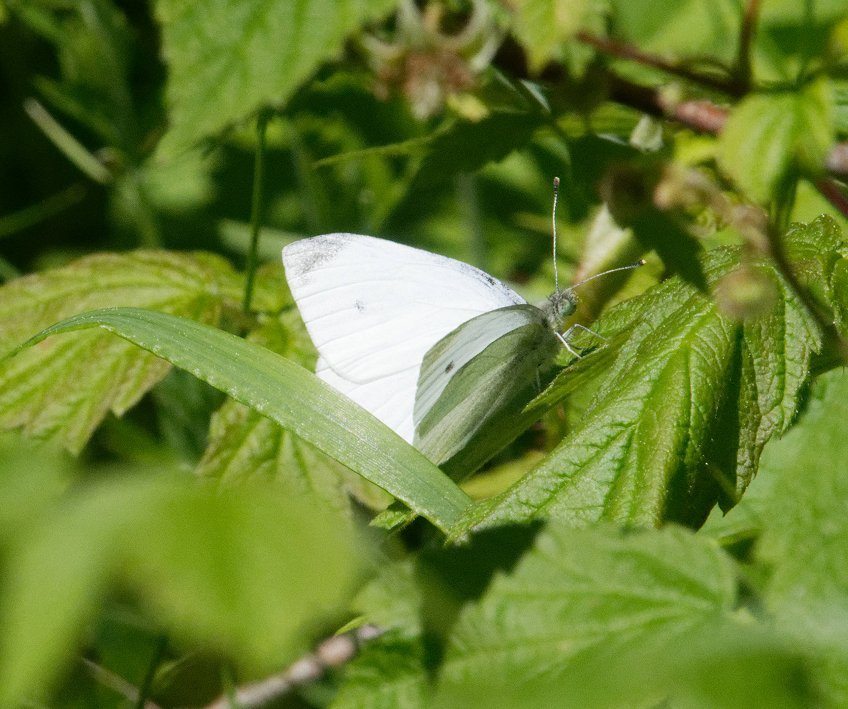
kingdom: Animalia
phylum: Arthropoda
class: Insecta
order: Lepidoptera
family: Pieridae
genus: Pieris
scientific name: Pieris rapae
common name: Cabbage White
